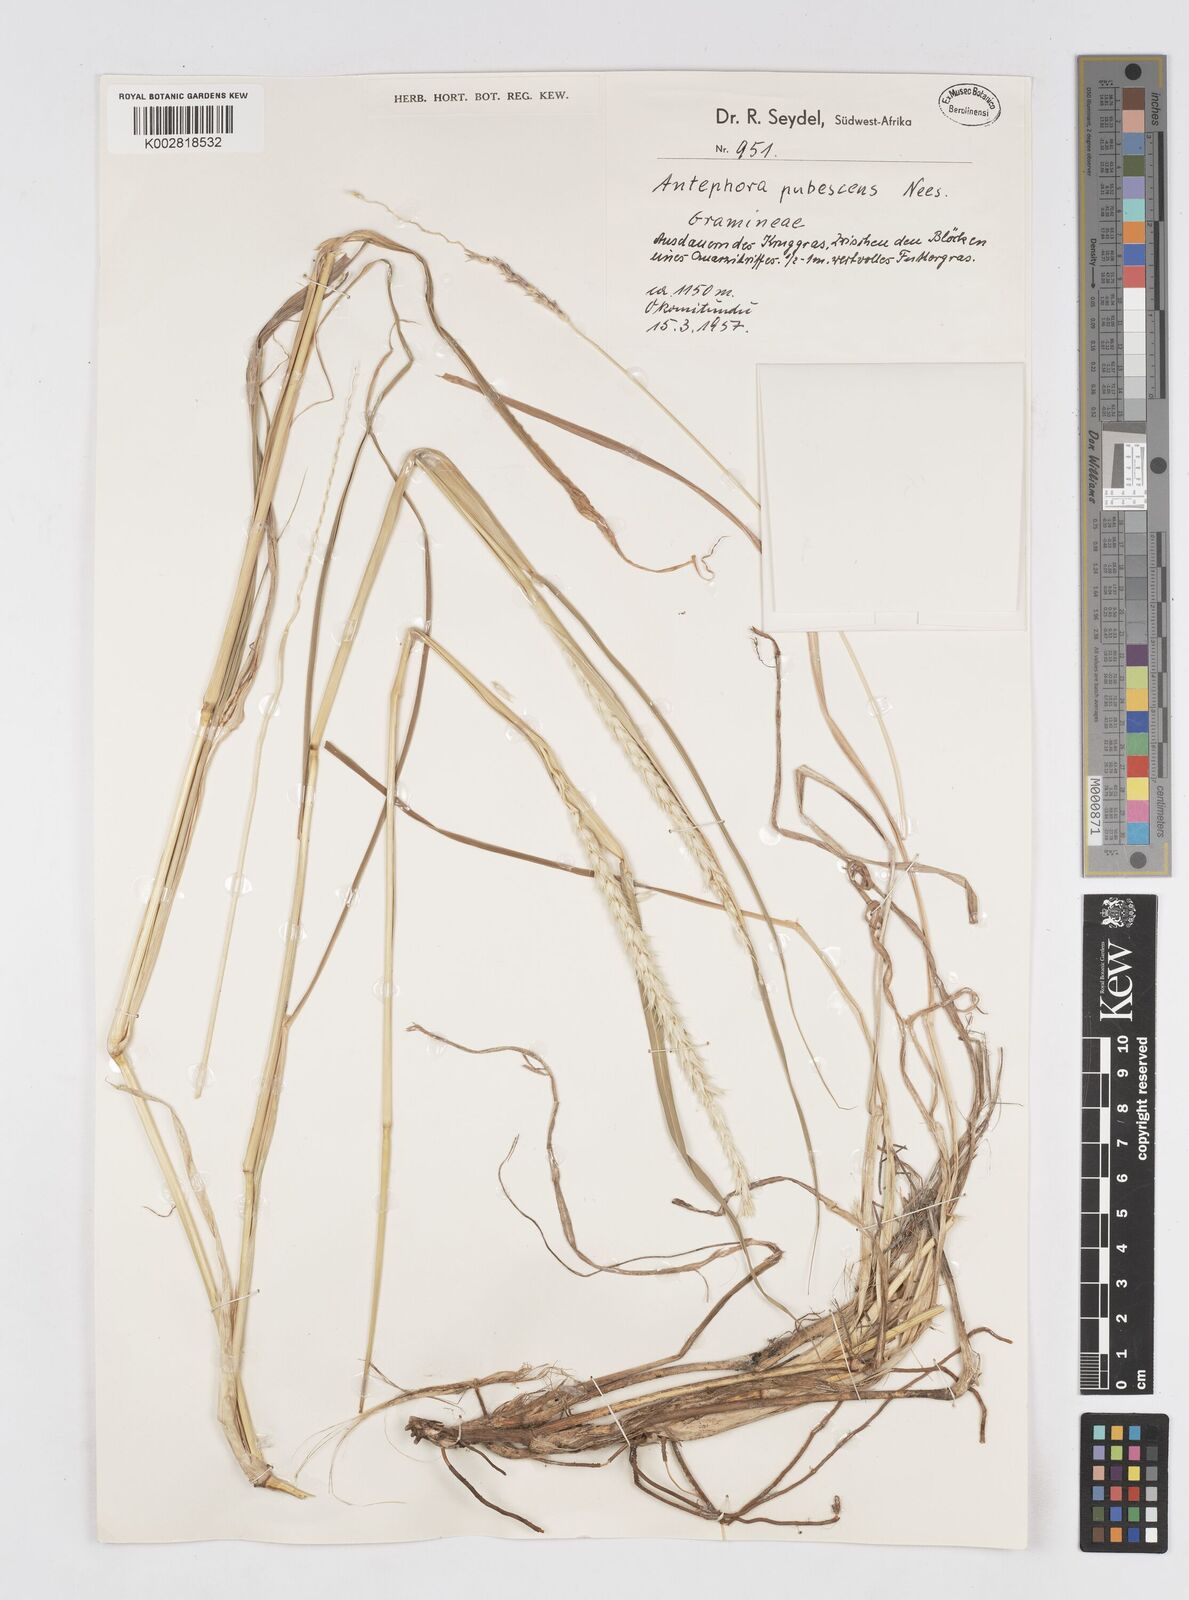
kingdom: Plantae
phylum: Tracheophyta
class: Liliopsida
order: Poales
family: Poaceae
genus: Anthephora
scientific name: Anthephora pubescens
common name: Wool grass
